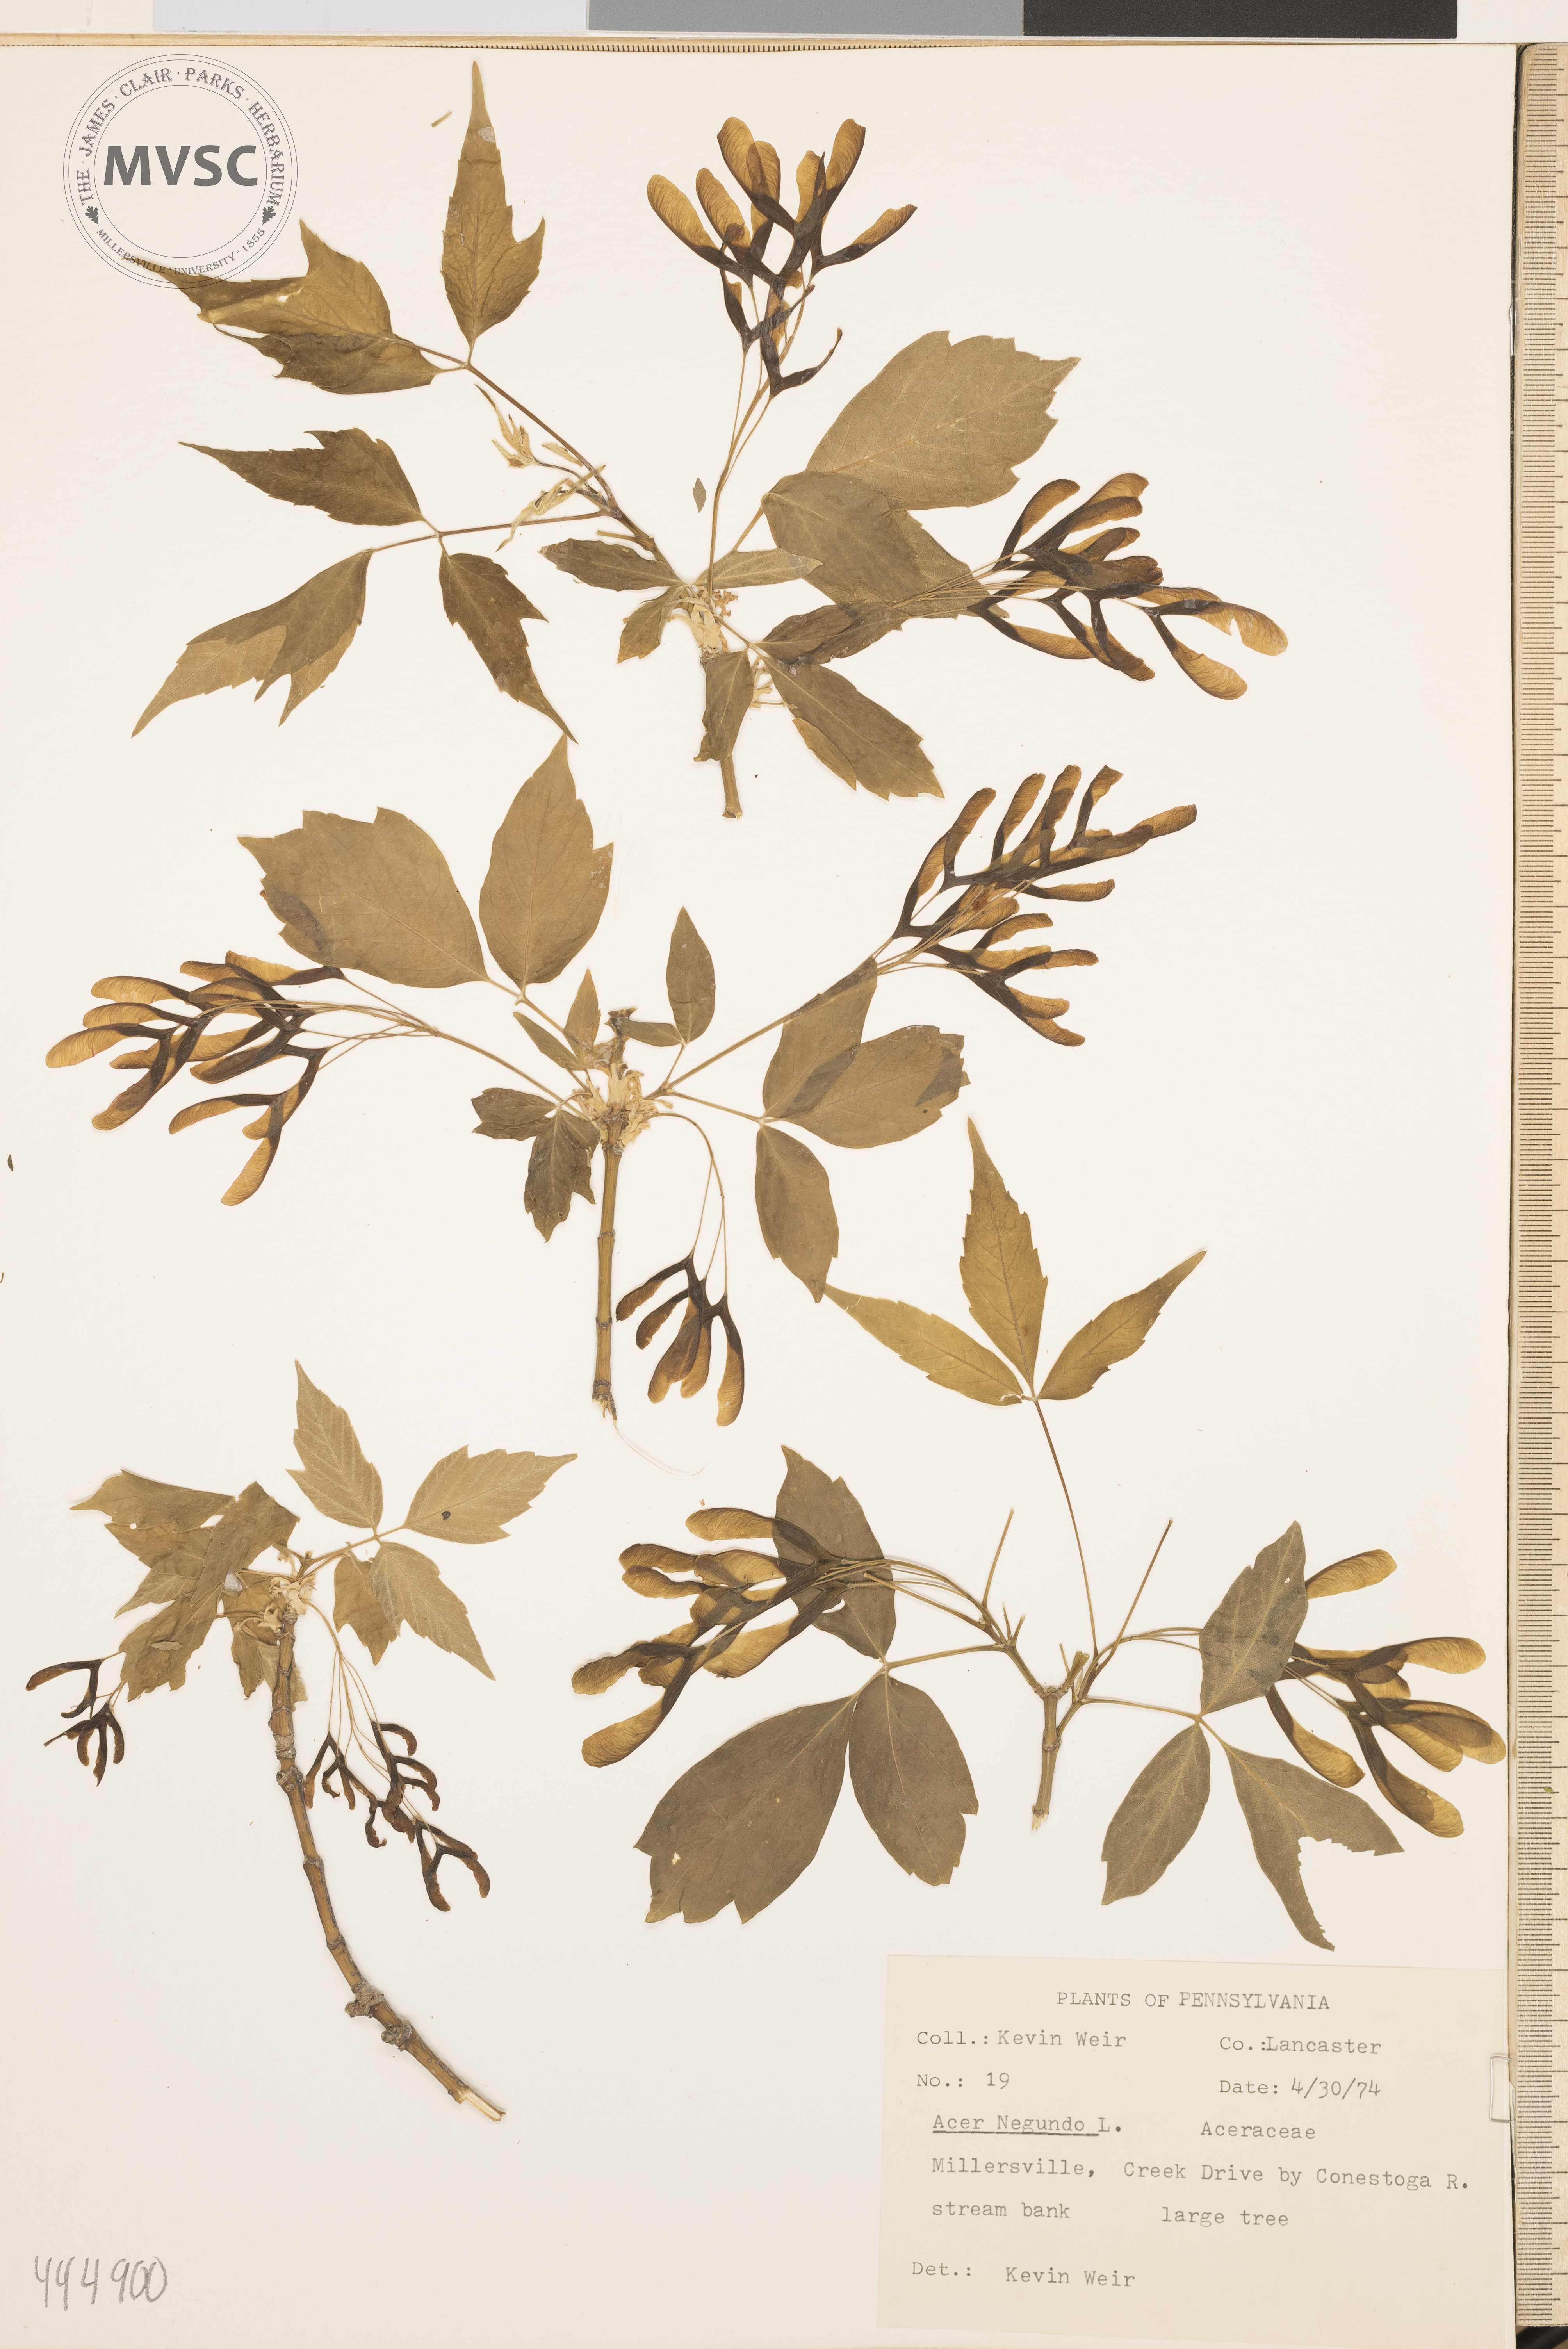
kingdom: Plantae
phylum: Tracheophyta
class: Magnoliopsida
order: Sapindales
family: Sapindaceae
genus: Acer
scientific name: Acer negundo
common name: Ashleaf maple
